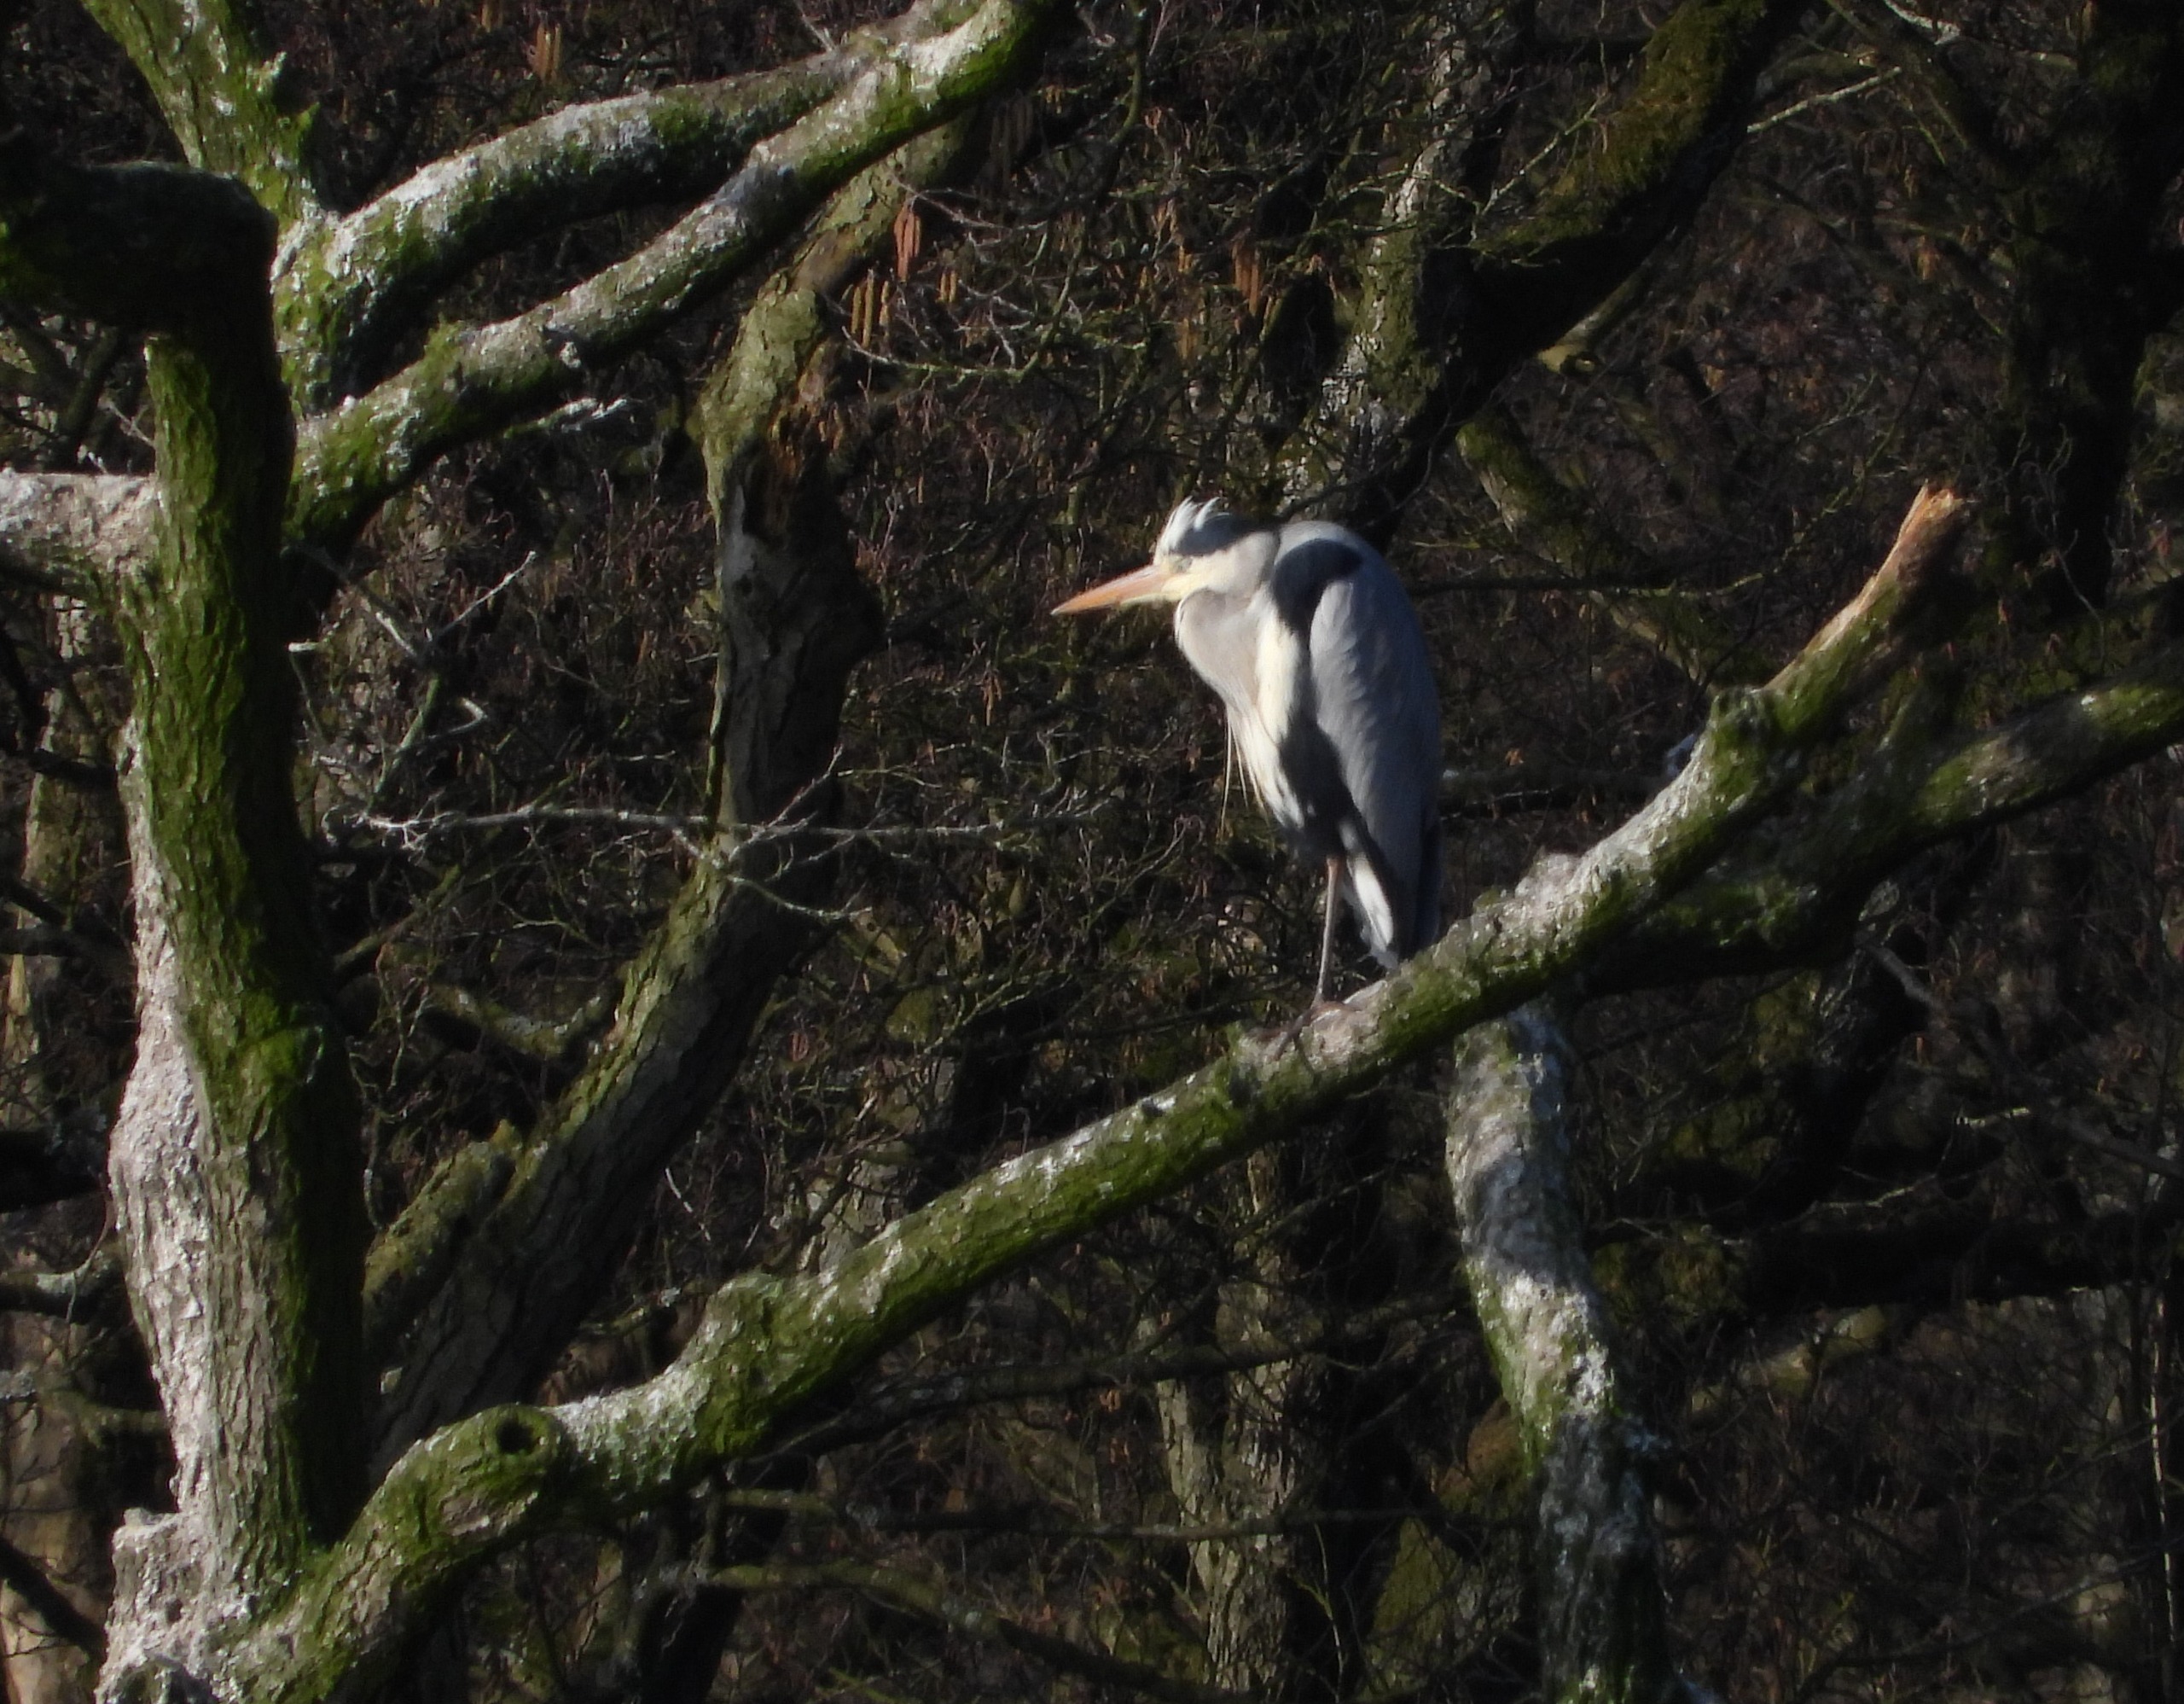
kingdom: Animalia
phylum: Chordata
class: Aves
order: Pelecaniformes
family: Ardeidae
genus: Ardea
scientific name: Ardea cinerea
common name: Fiskehejre
